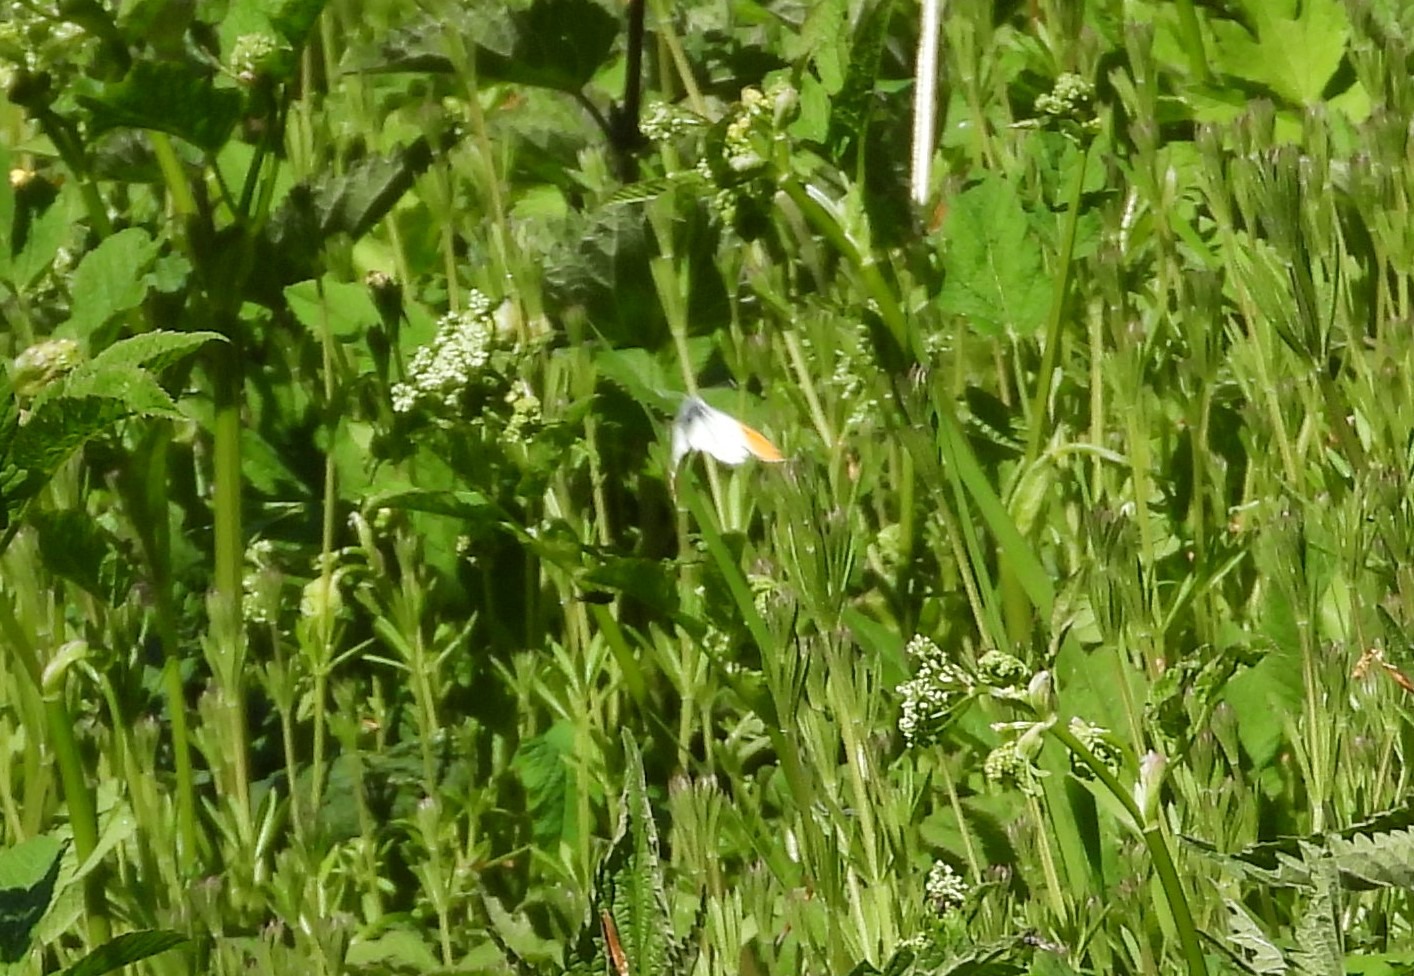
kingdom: Animalia
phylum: Arthropoda
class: Insecta
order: Lepidoptera
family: Pieridae
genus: Anthocharis
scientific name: Anthocharis cardamines
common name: Aurora
